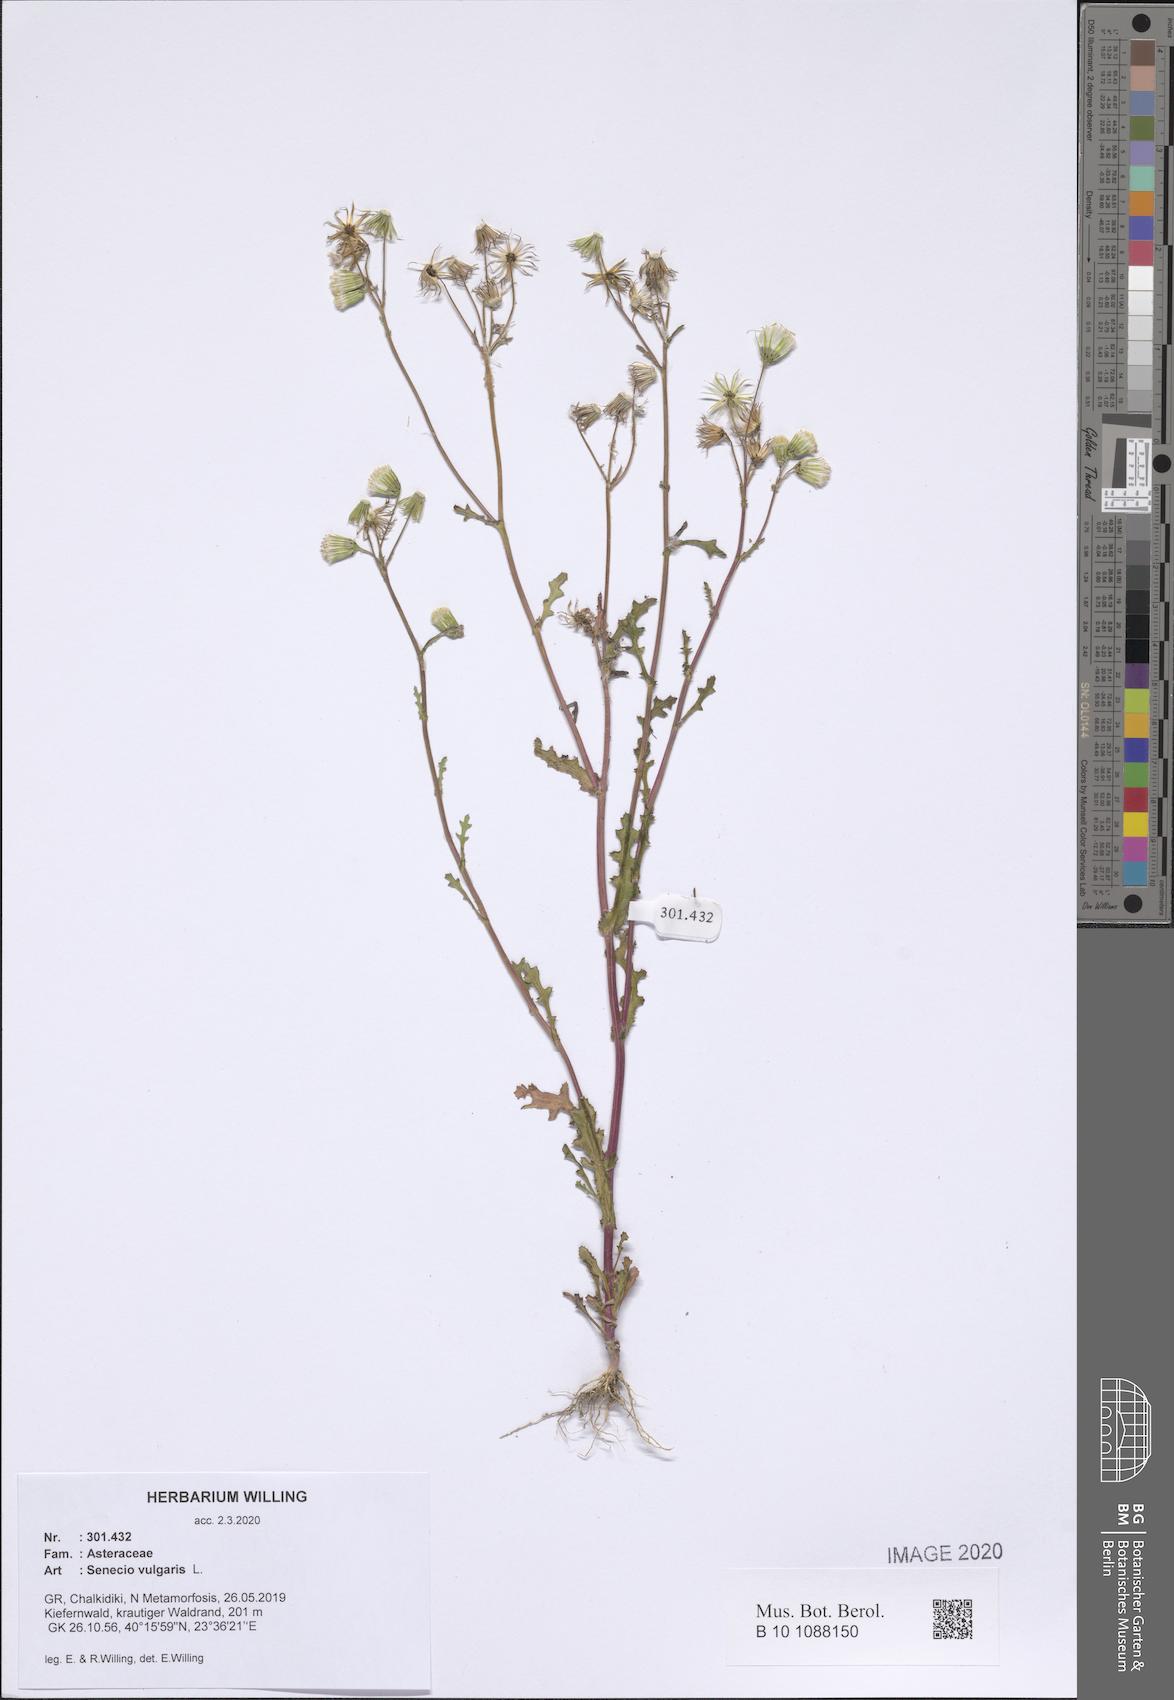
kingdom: Plantae
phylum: Tracheophyta
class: Magnoliopsida
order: Asterales
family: Asteraceae
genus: Senecio
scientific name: Senecio vulgaris
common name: Old-man-in-the-spring
